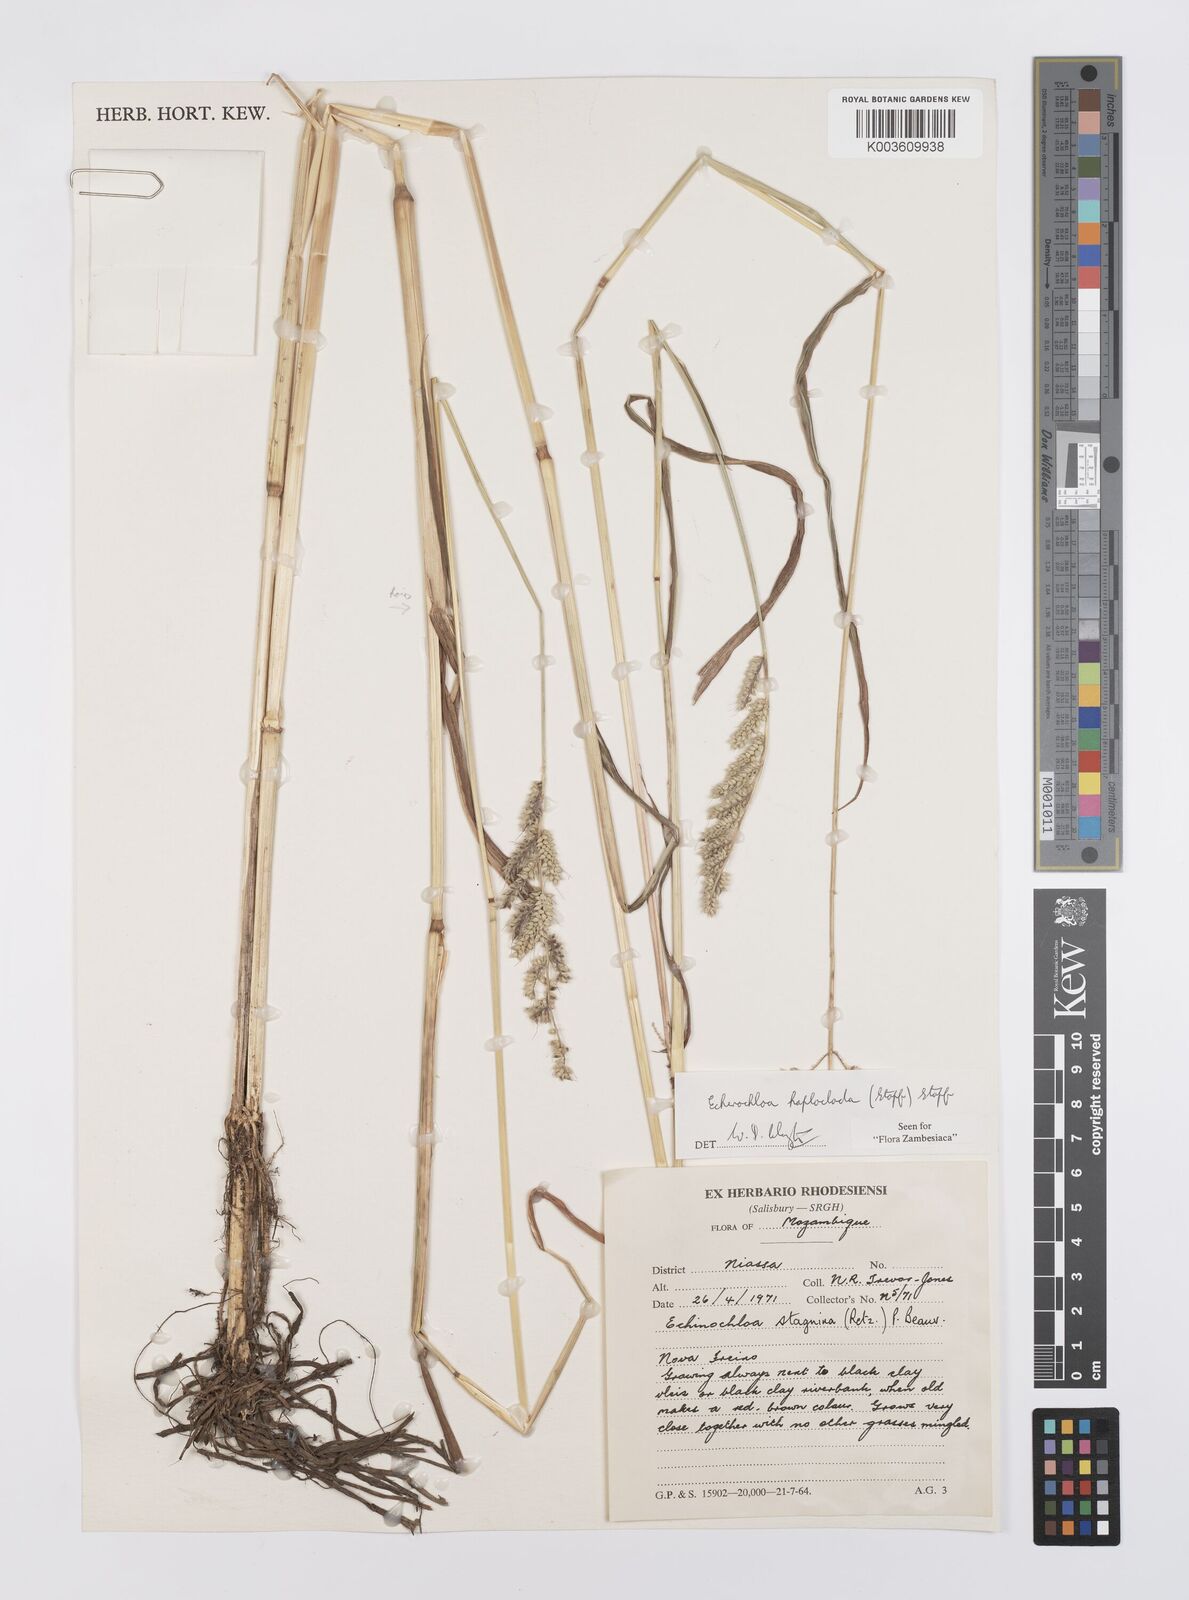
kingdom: Plantae
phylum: Tracheophyta
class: Liliopsida
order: Poales
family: Poaceae
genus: Echinochloa
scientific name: Echinochloa haploclada
